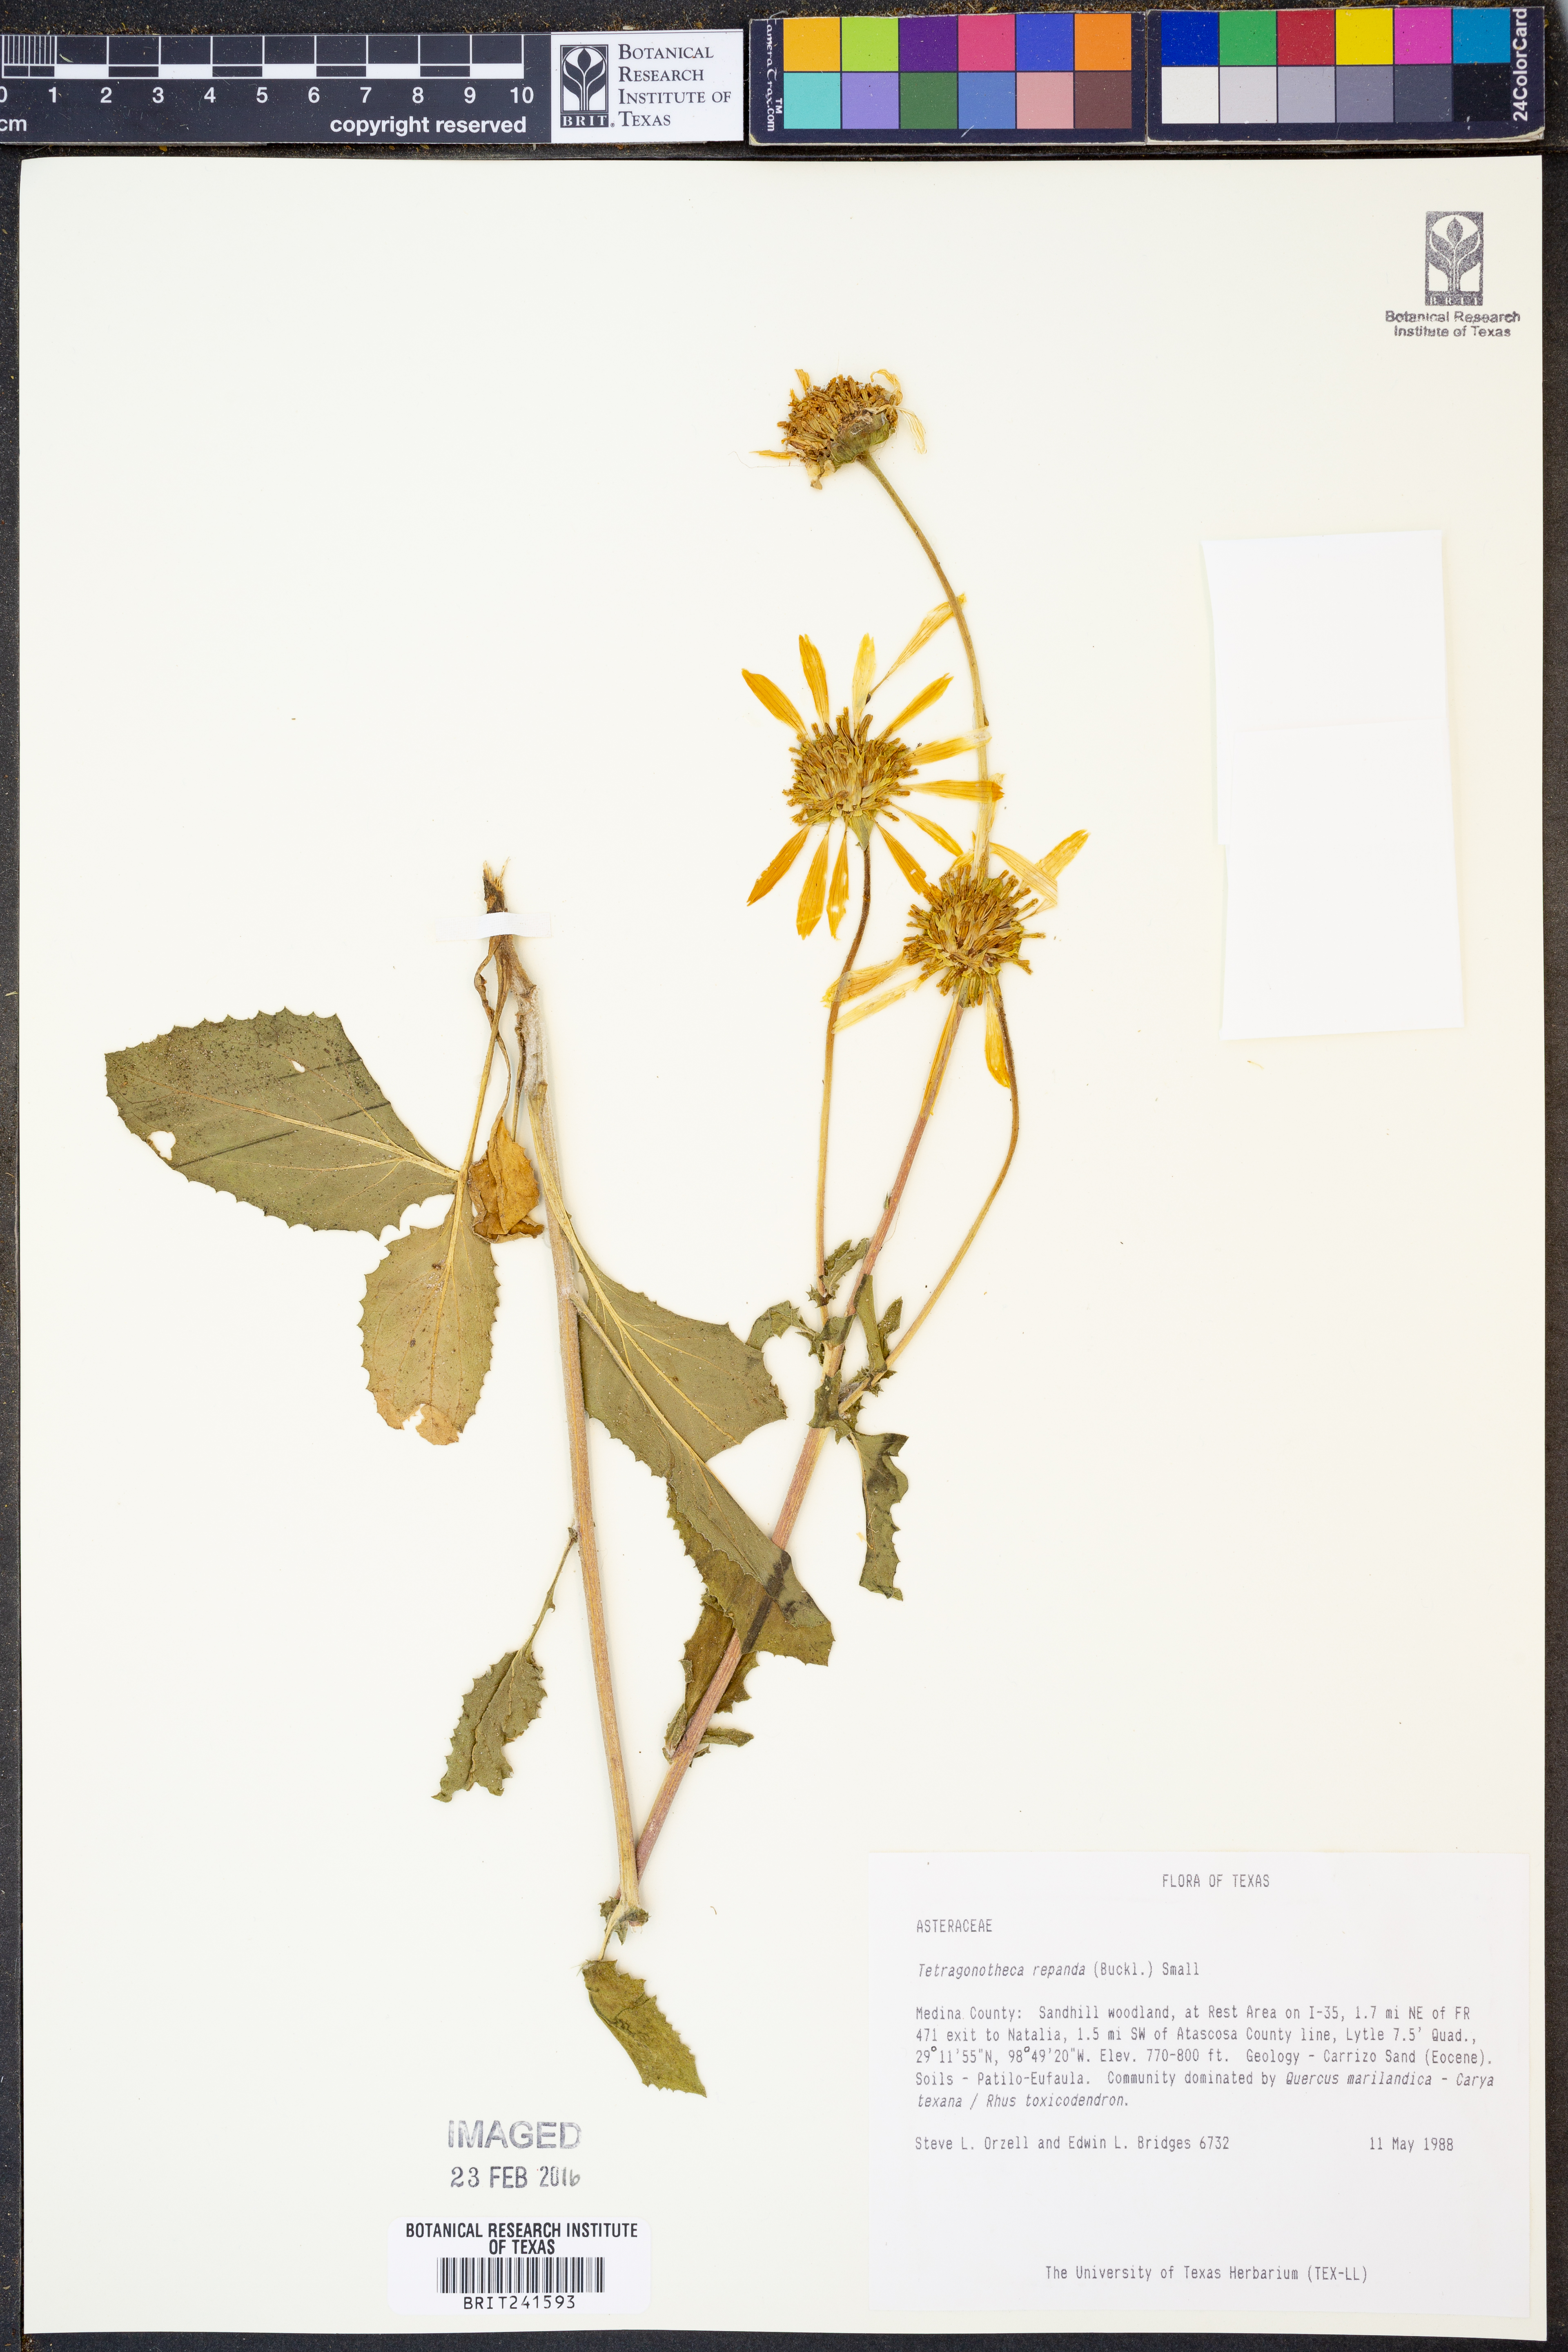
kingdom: Plantae
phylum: Tracheophyta
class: Magnoliopsida
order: Asterales
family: Asteraceae
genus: Tetragonotheca
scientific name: Tetragonotheca repanda
